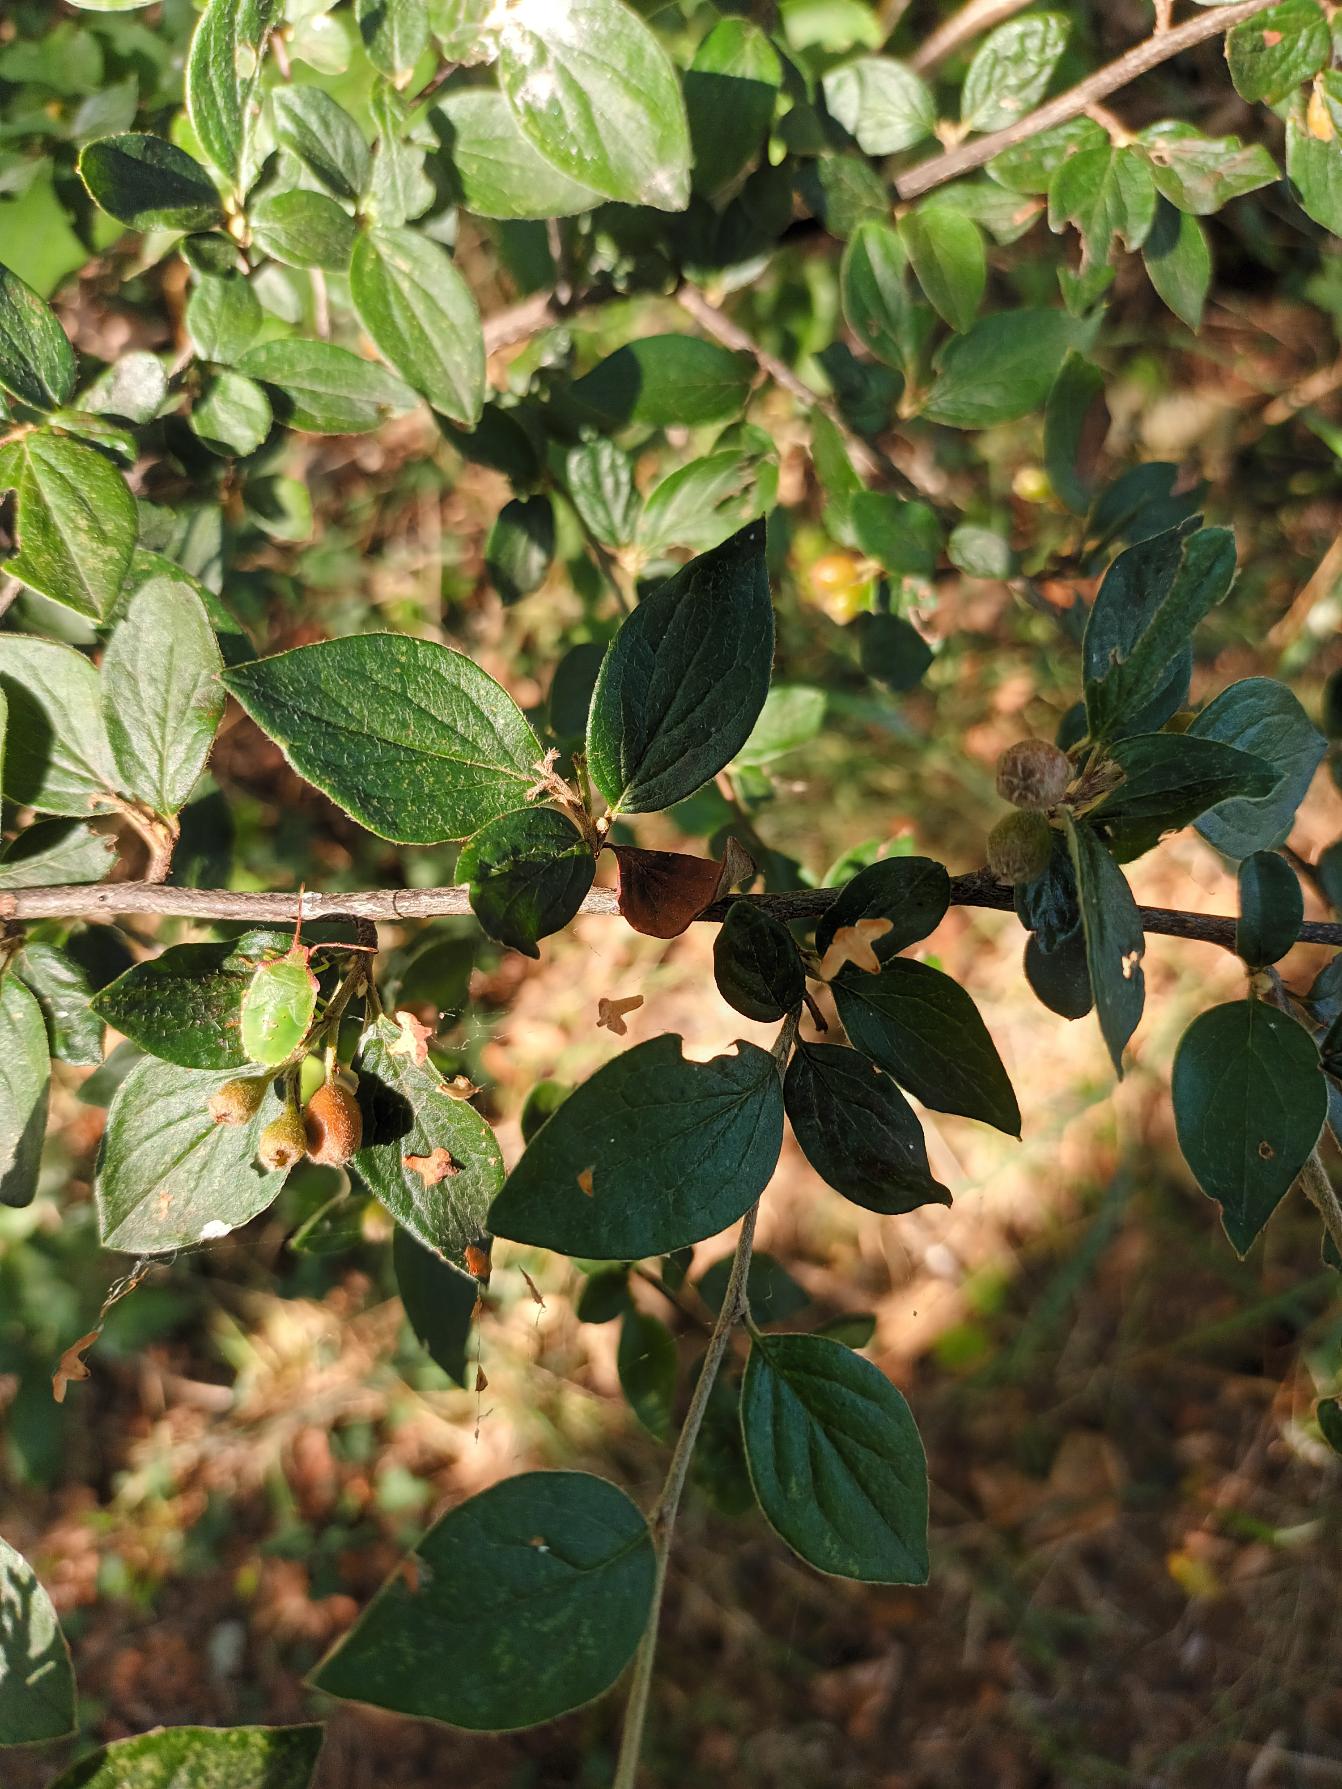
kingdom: Plantae
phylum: Tracheophyta
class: Magnoliopsida
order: Rosales
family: Rosaceae
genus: Cotoneaster
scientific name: Cotoneaster dielsianus
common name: Kinesisk dværgmispel
